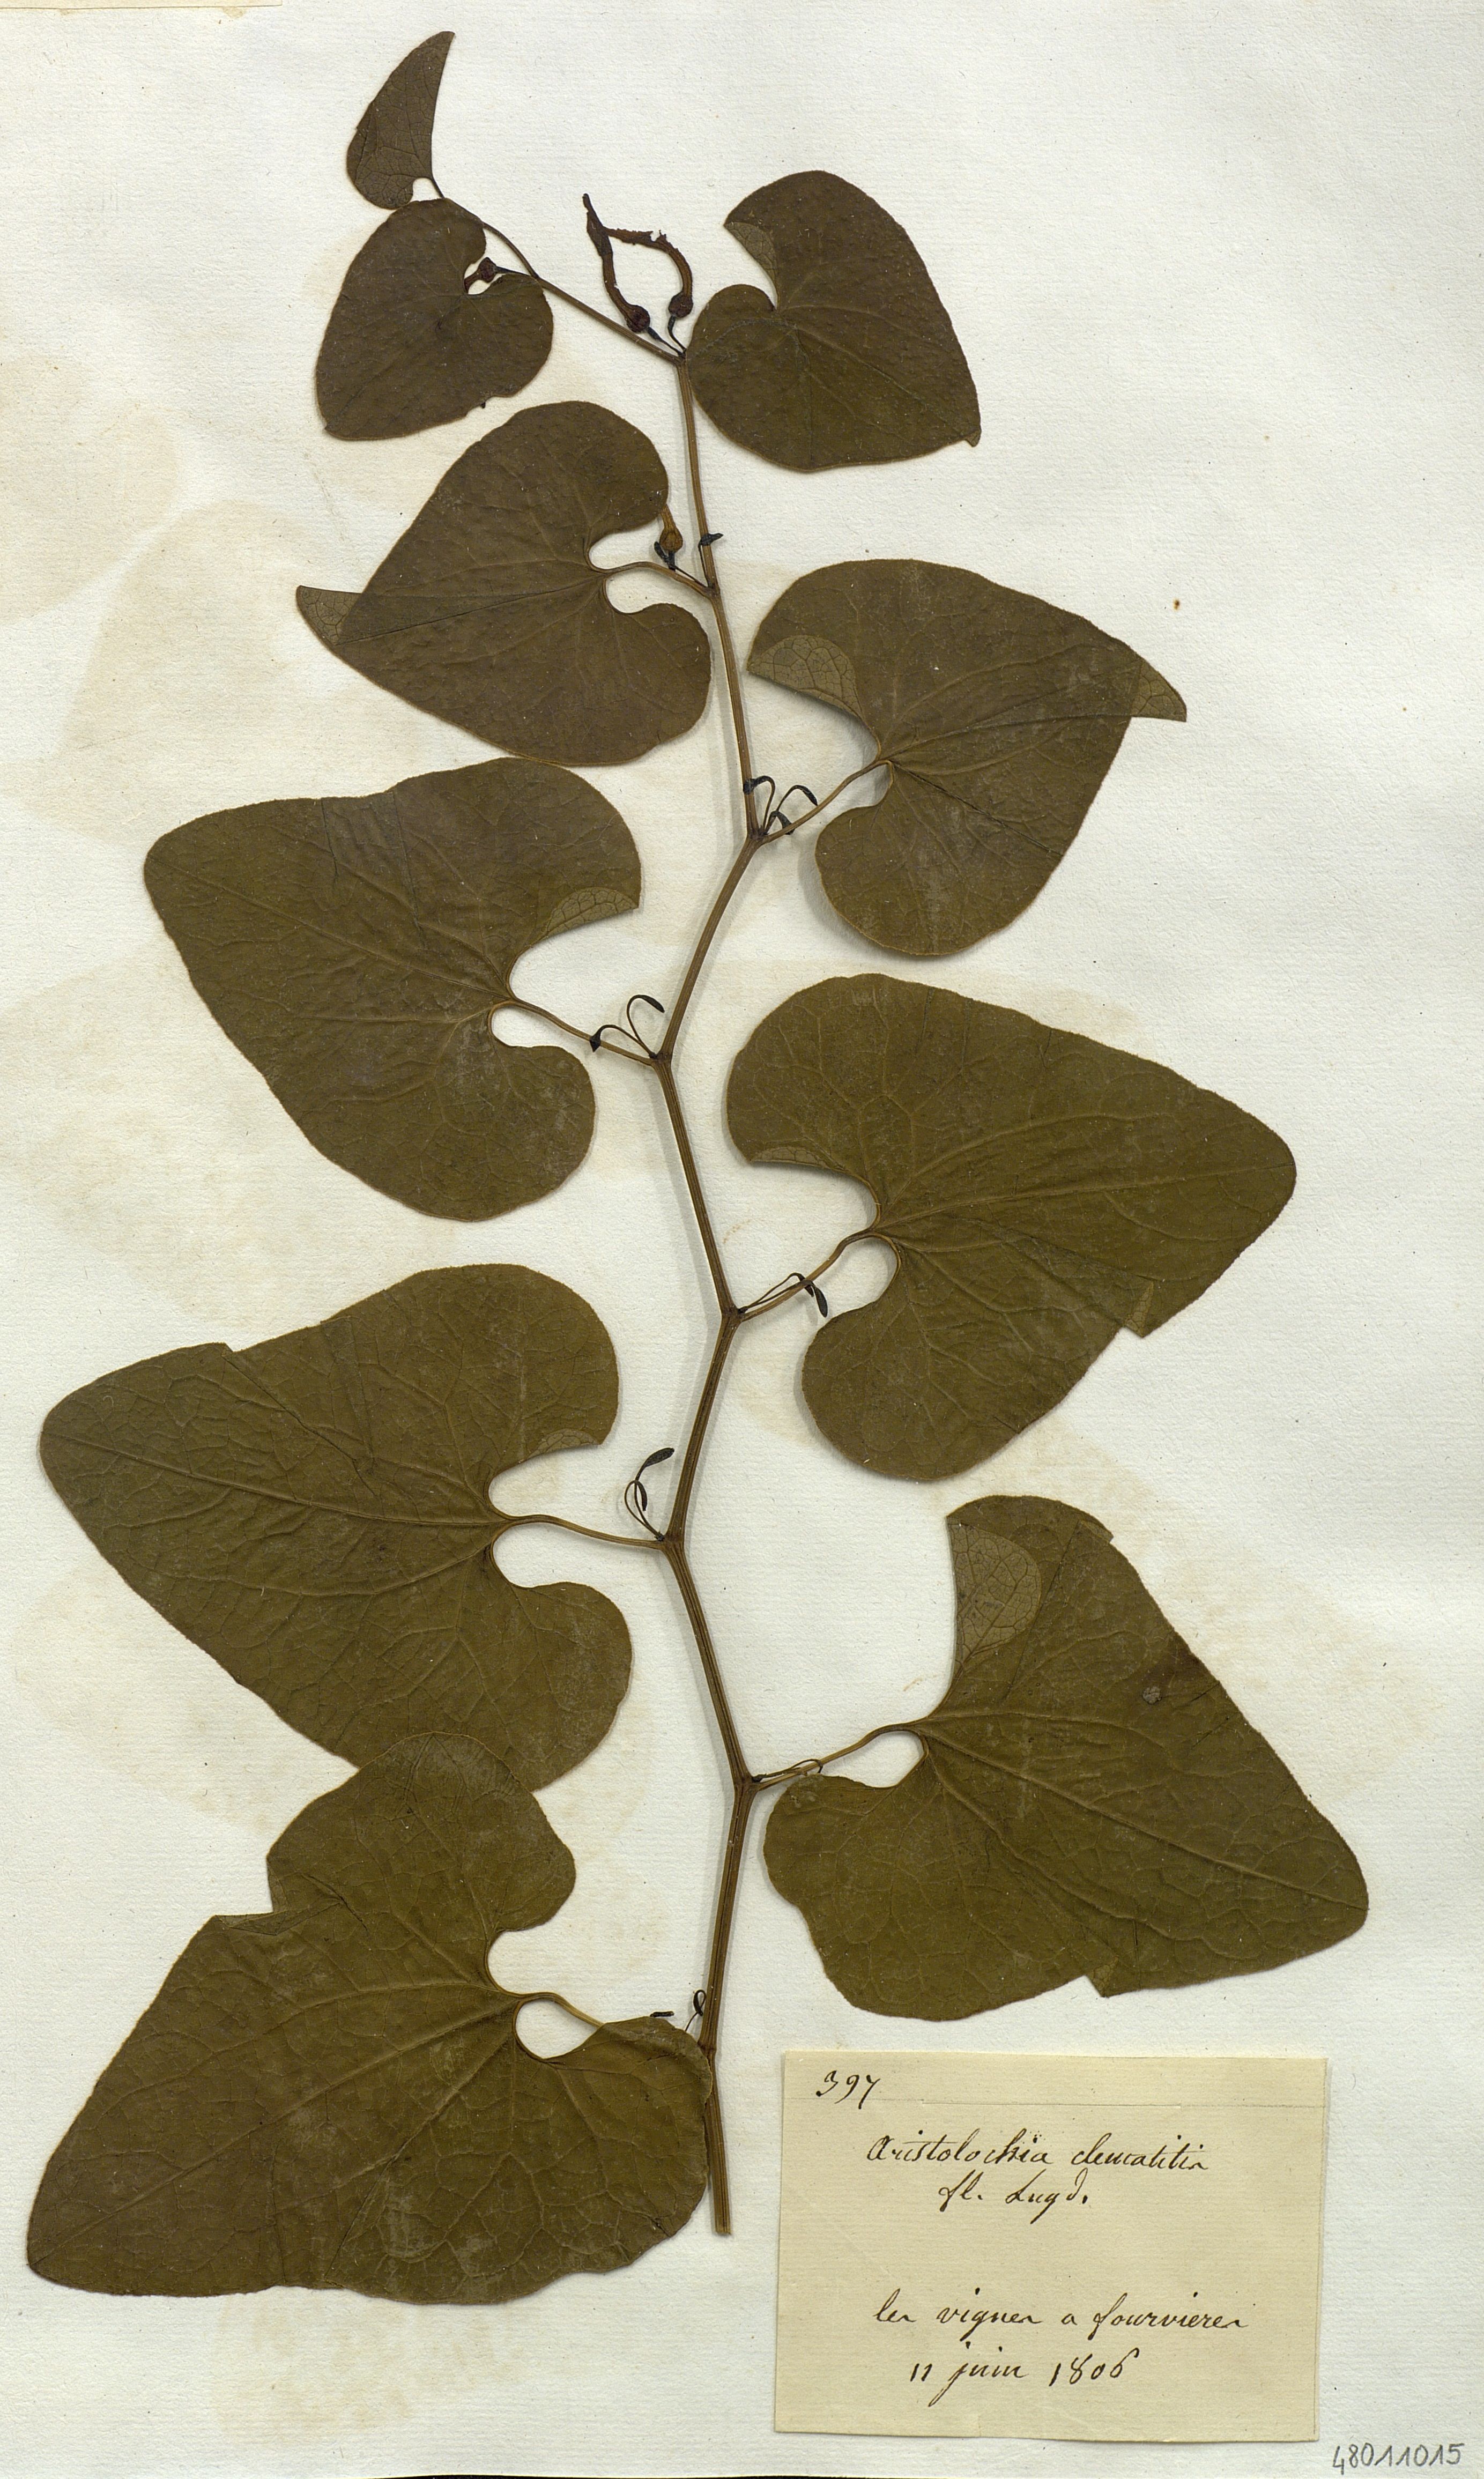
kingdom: Plantae
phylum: Tracheophyta
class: Magnoliopsida
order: Piperales
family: Aristolochiaceae
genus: Aristolochia
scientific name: Aristolochia clematitis
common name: Birthwort
